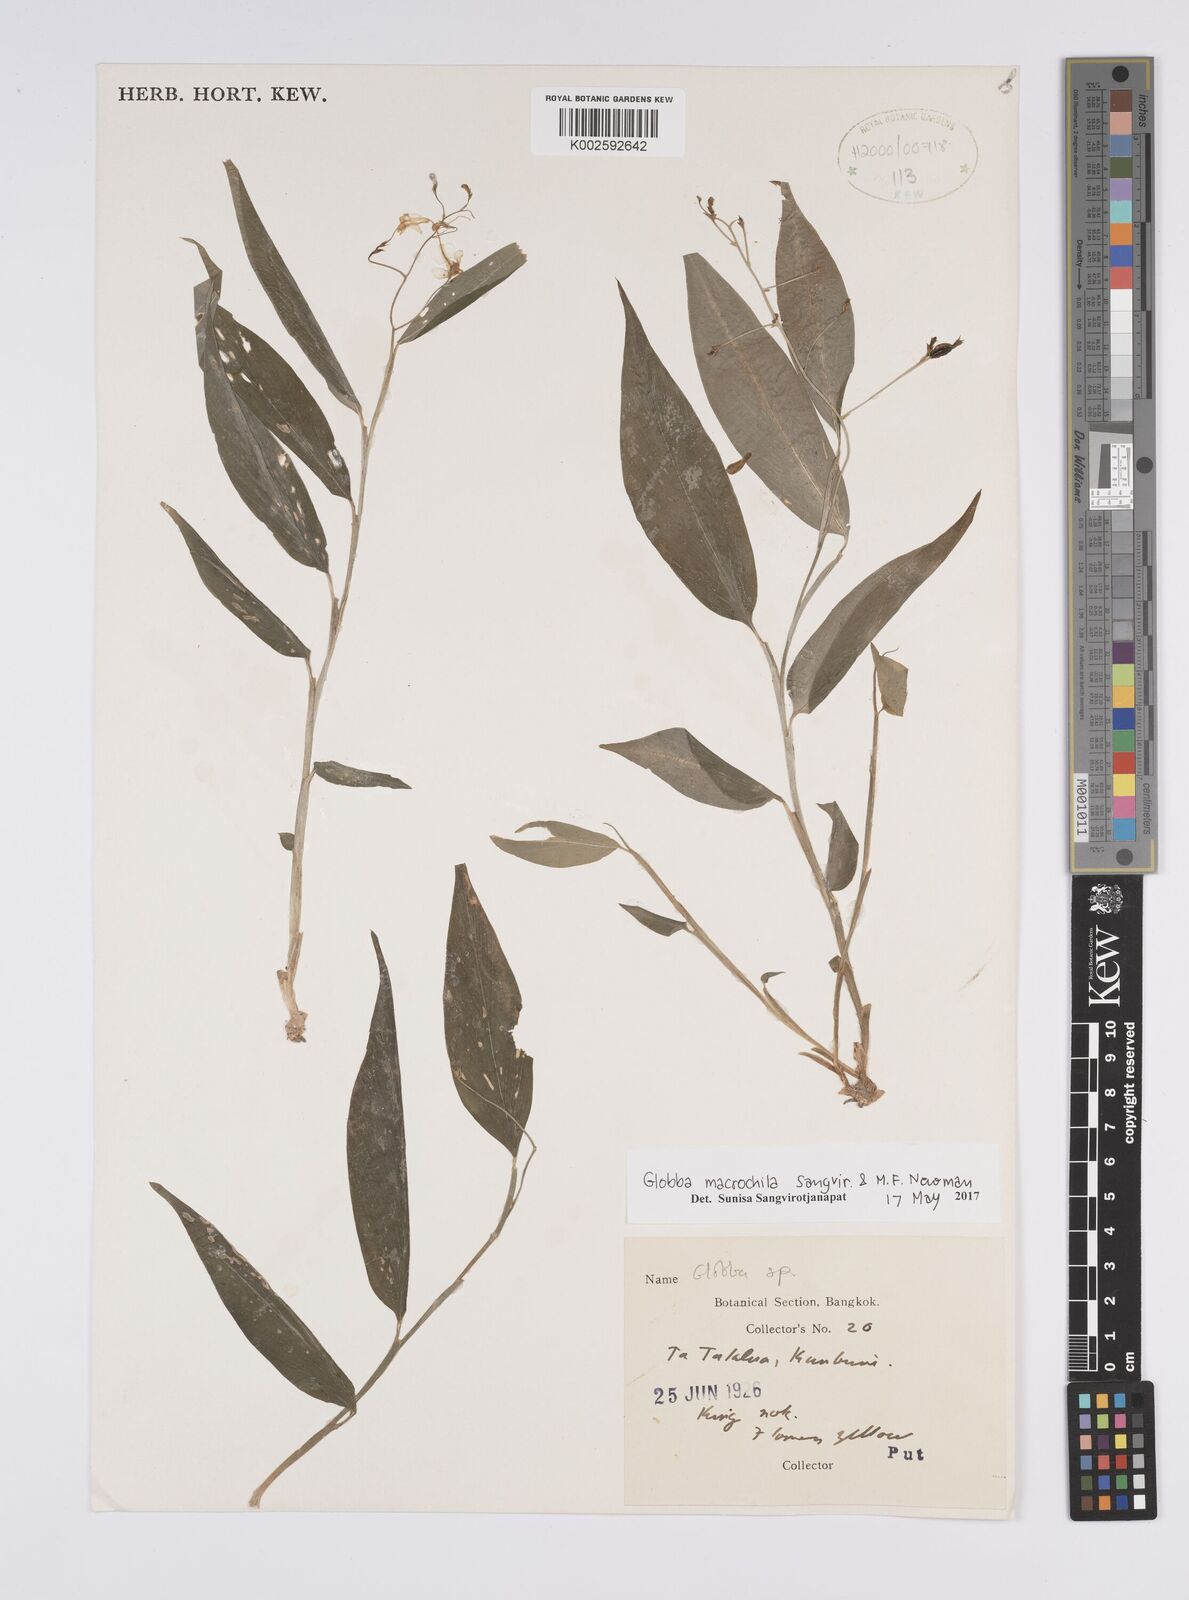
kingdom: Plantae
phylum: Tracheophyta
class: Liliopsida
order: Zingiberales
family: Zingiberaceae
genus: Globba
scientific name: Globba macrochila
